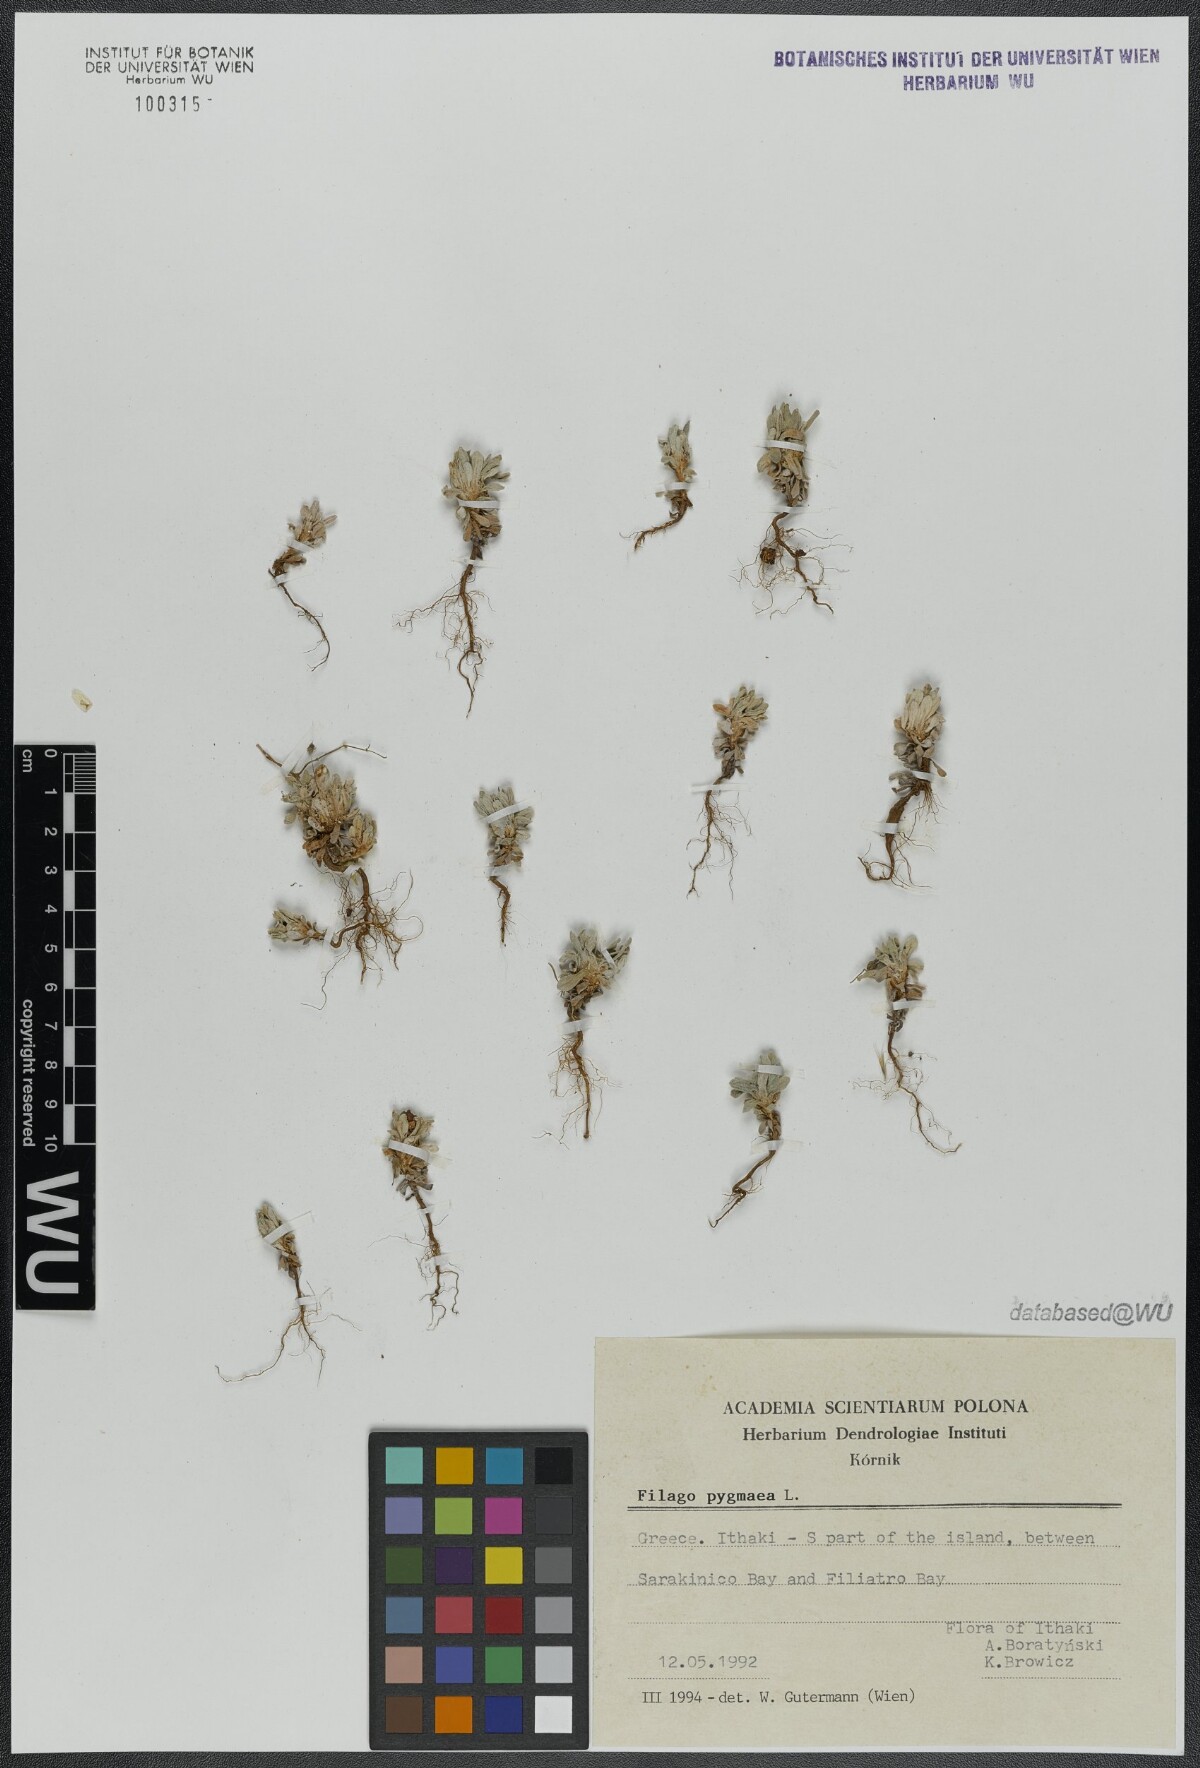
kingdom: Plantae
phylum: Tracheophyta
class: Magnoliopsida
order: Asterales
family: Asteraceae
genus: Filago
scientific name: Filago pygmaea
